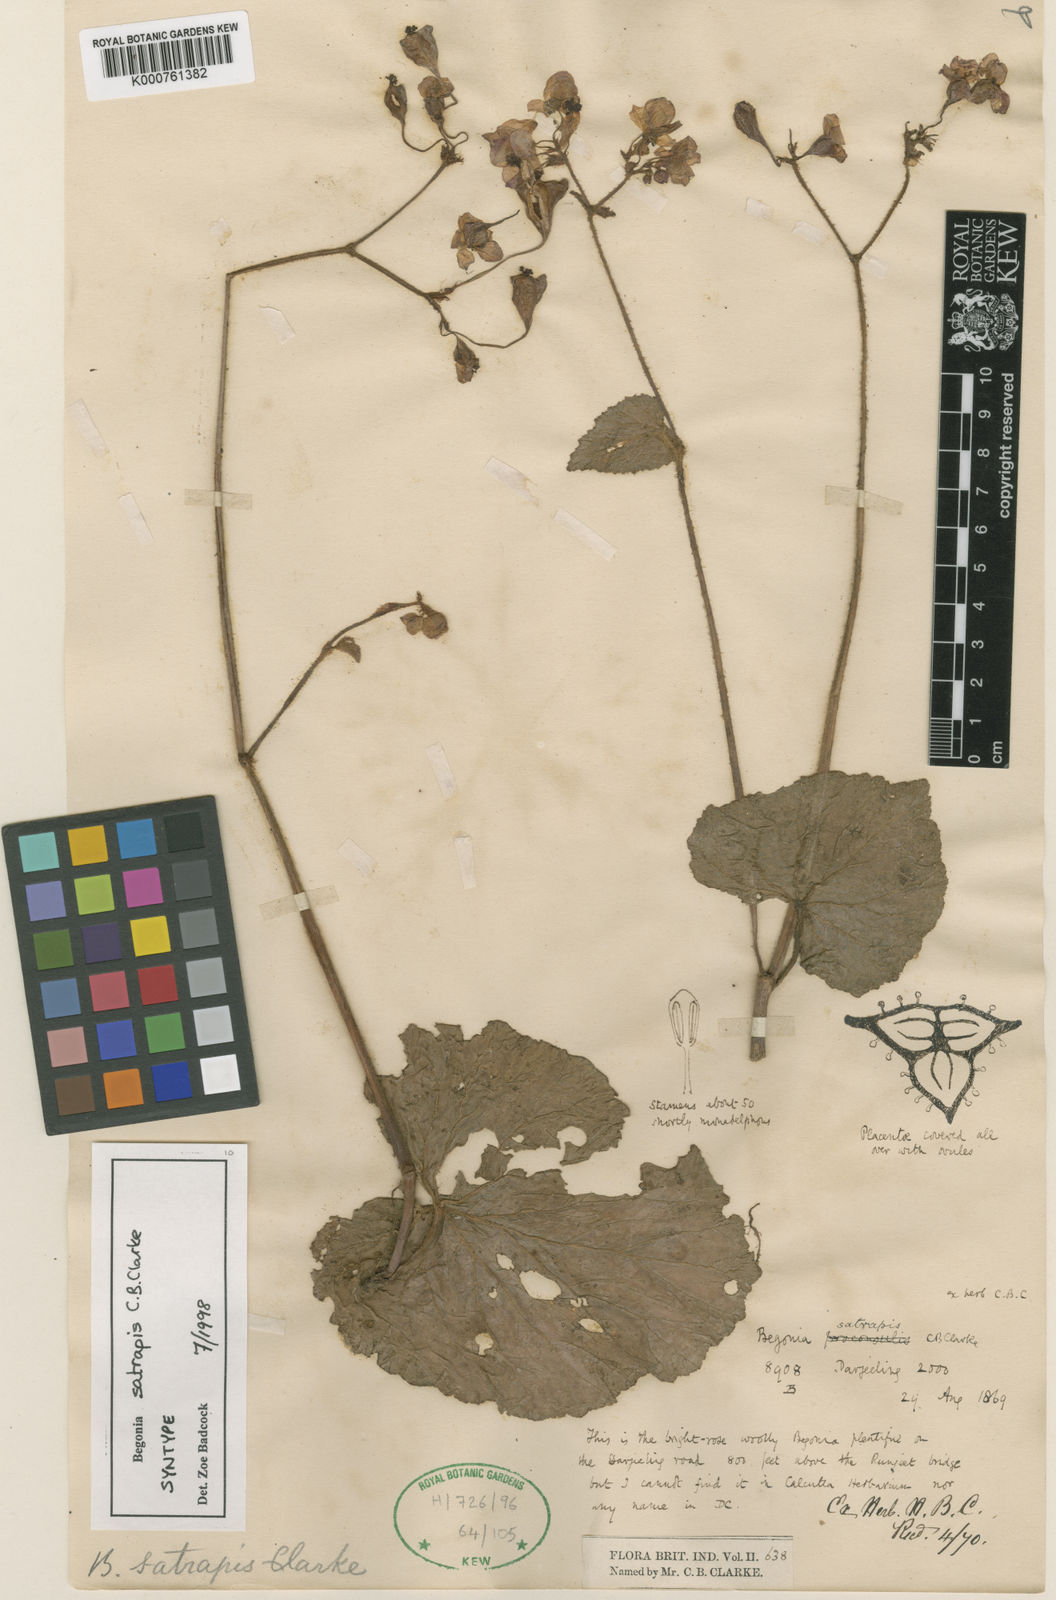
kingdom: Plantae
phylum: Tracheophyta
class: Magnoliopsida
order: Cucurbitales
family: Begoniaceae
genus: Begonia
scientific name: Begonia satrapis
